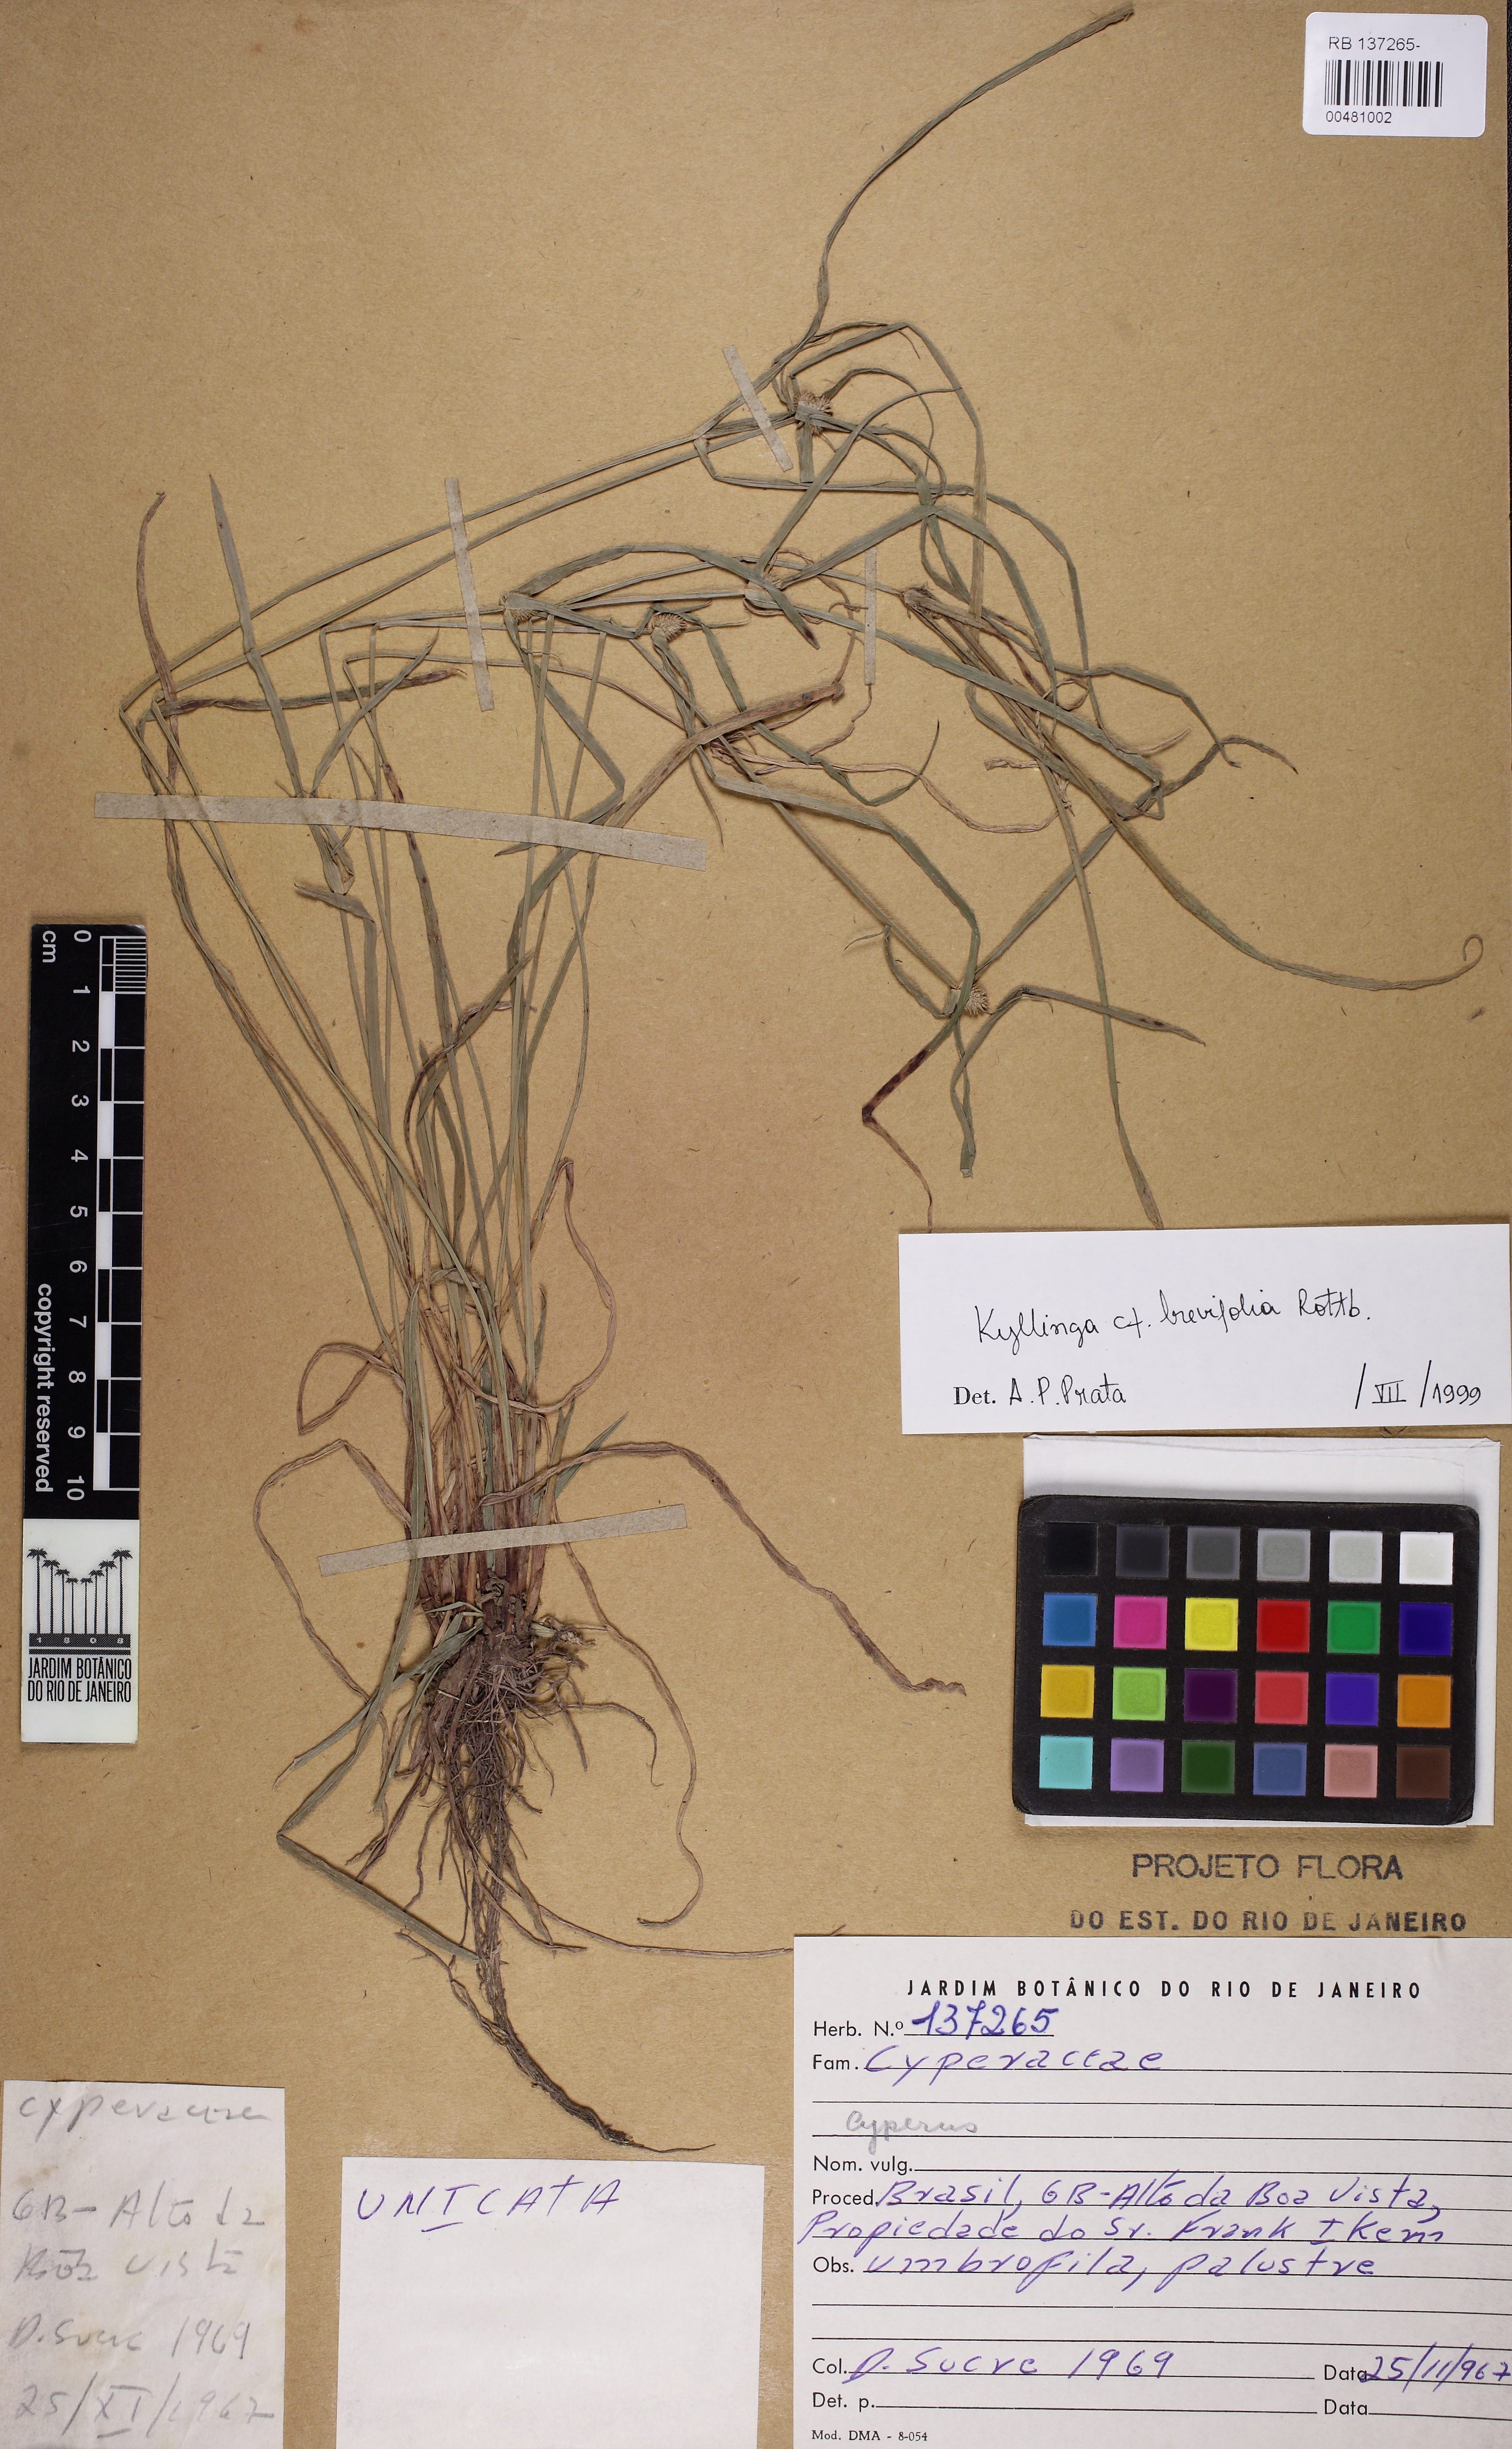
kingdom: Plantae
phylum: Tracheophyta
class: Liliopsida
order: Poales
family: Cyperaceae
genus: Cyperus
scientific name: Cyperus hortensis
